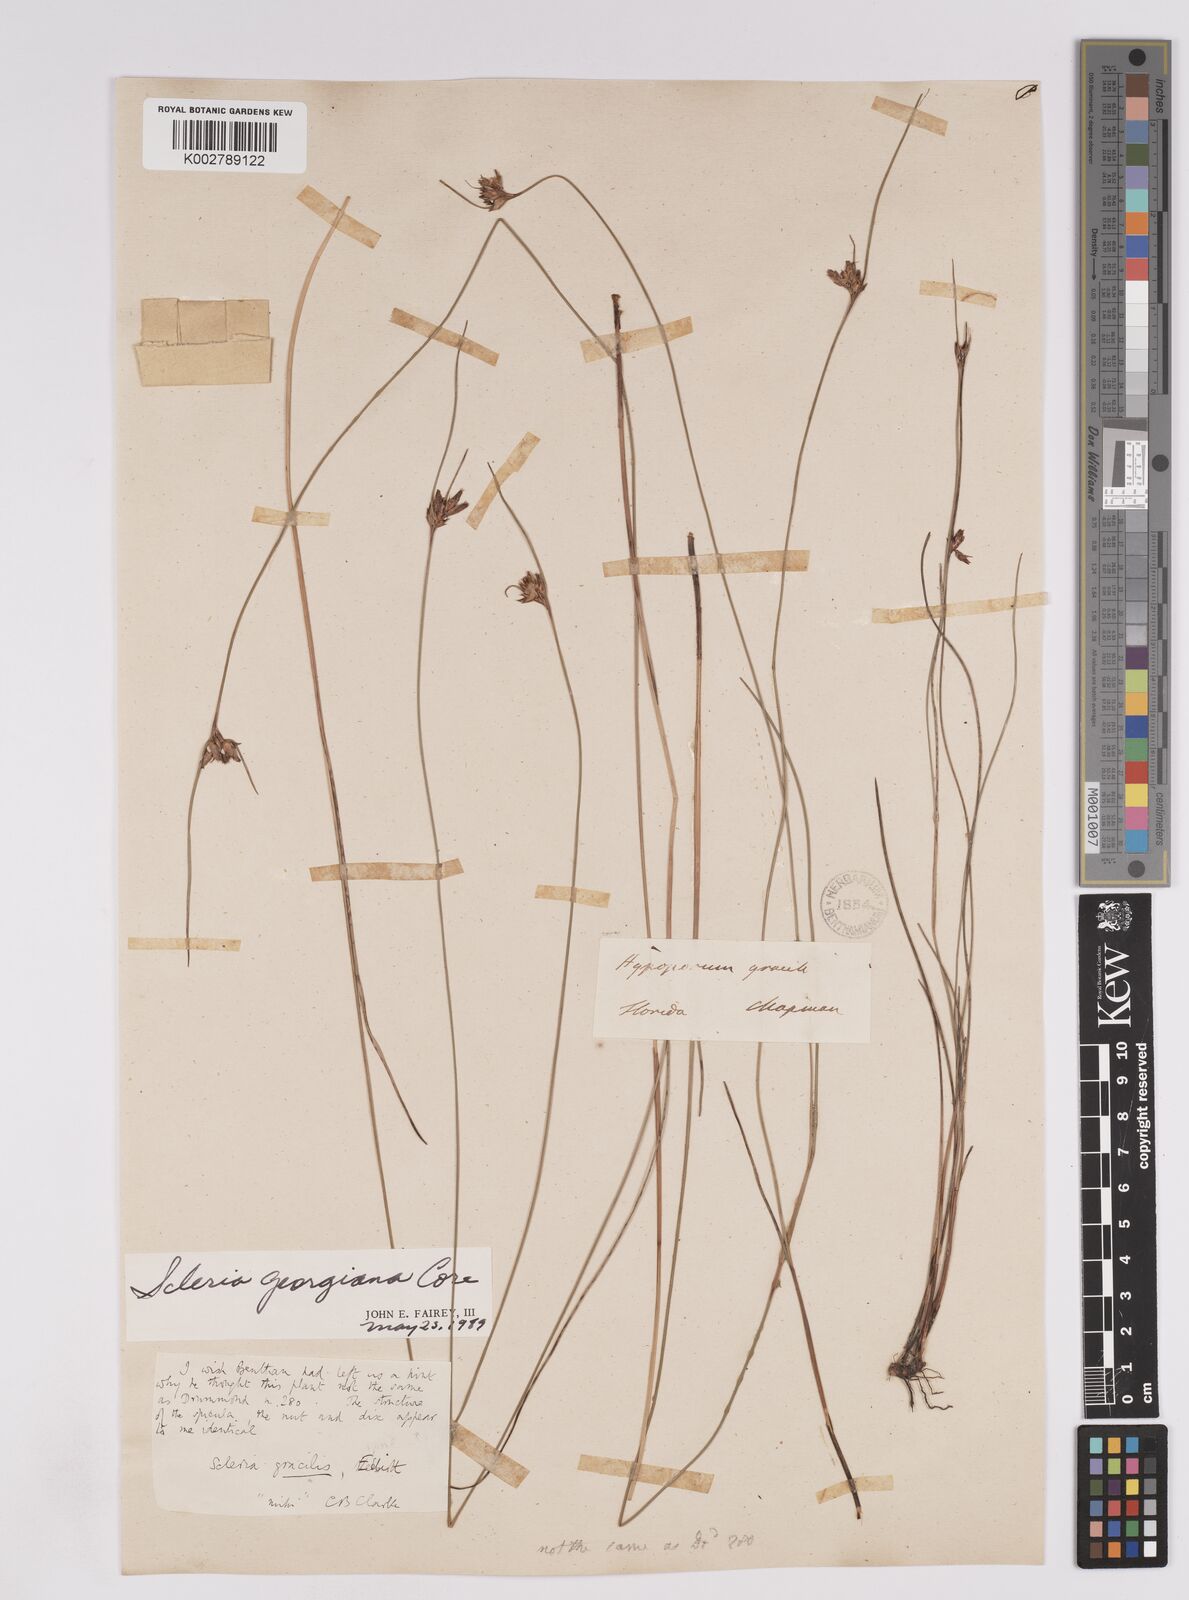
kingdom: Plantae
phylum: Tracheophyta
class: Liliopsida
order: Poales
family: Cyperaceae
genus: Scleria
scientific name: Scleria georgiana
